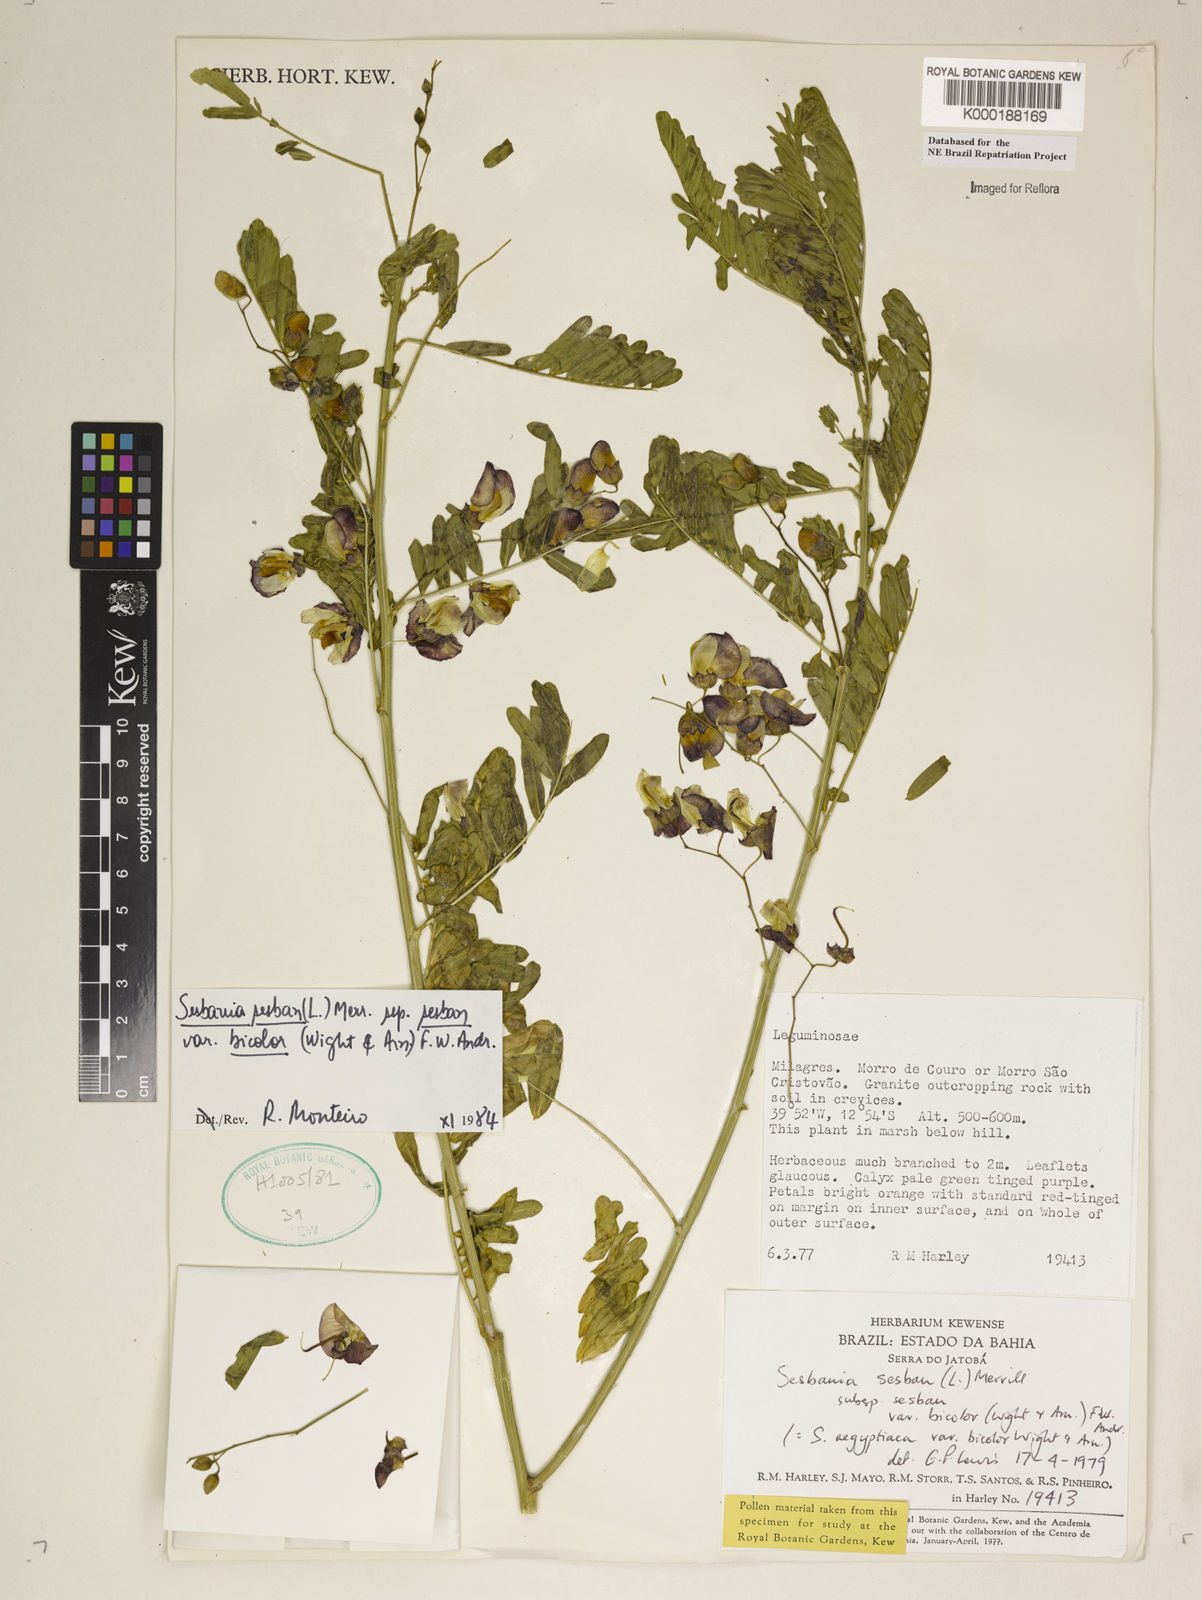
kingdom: Plantae
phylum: Tracheophyta
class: Magnoliopsida
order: Fabales
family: Fabaceae
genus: Sesbania
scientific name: Sesbania sesban
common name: Egyptian sesban
